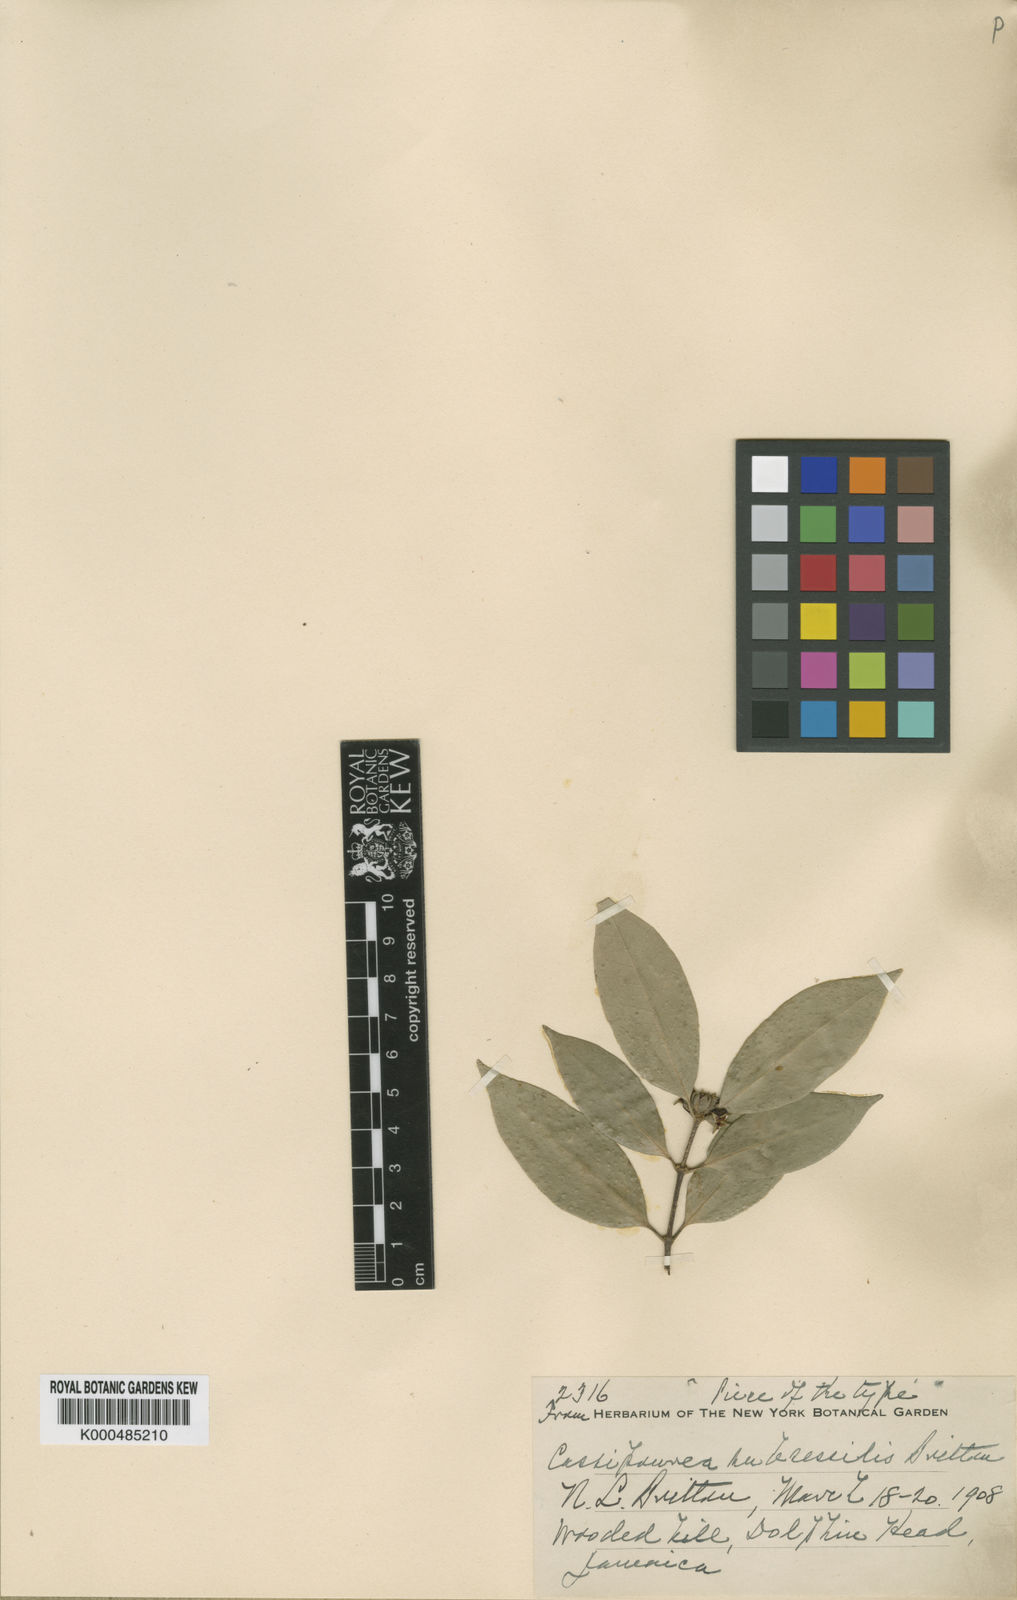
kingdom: Plantae
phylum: Tracheophyta
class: Magnoliopsida
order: Malpighiales
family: Rhizophoraceae
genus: Cassipourea
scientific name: Cassipourea subsessilis
